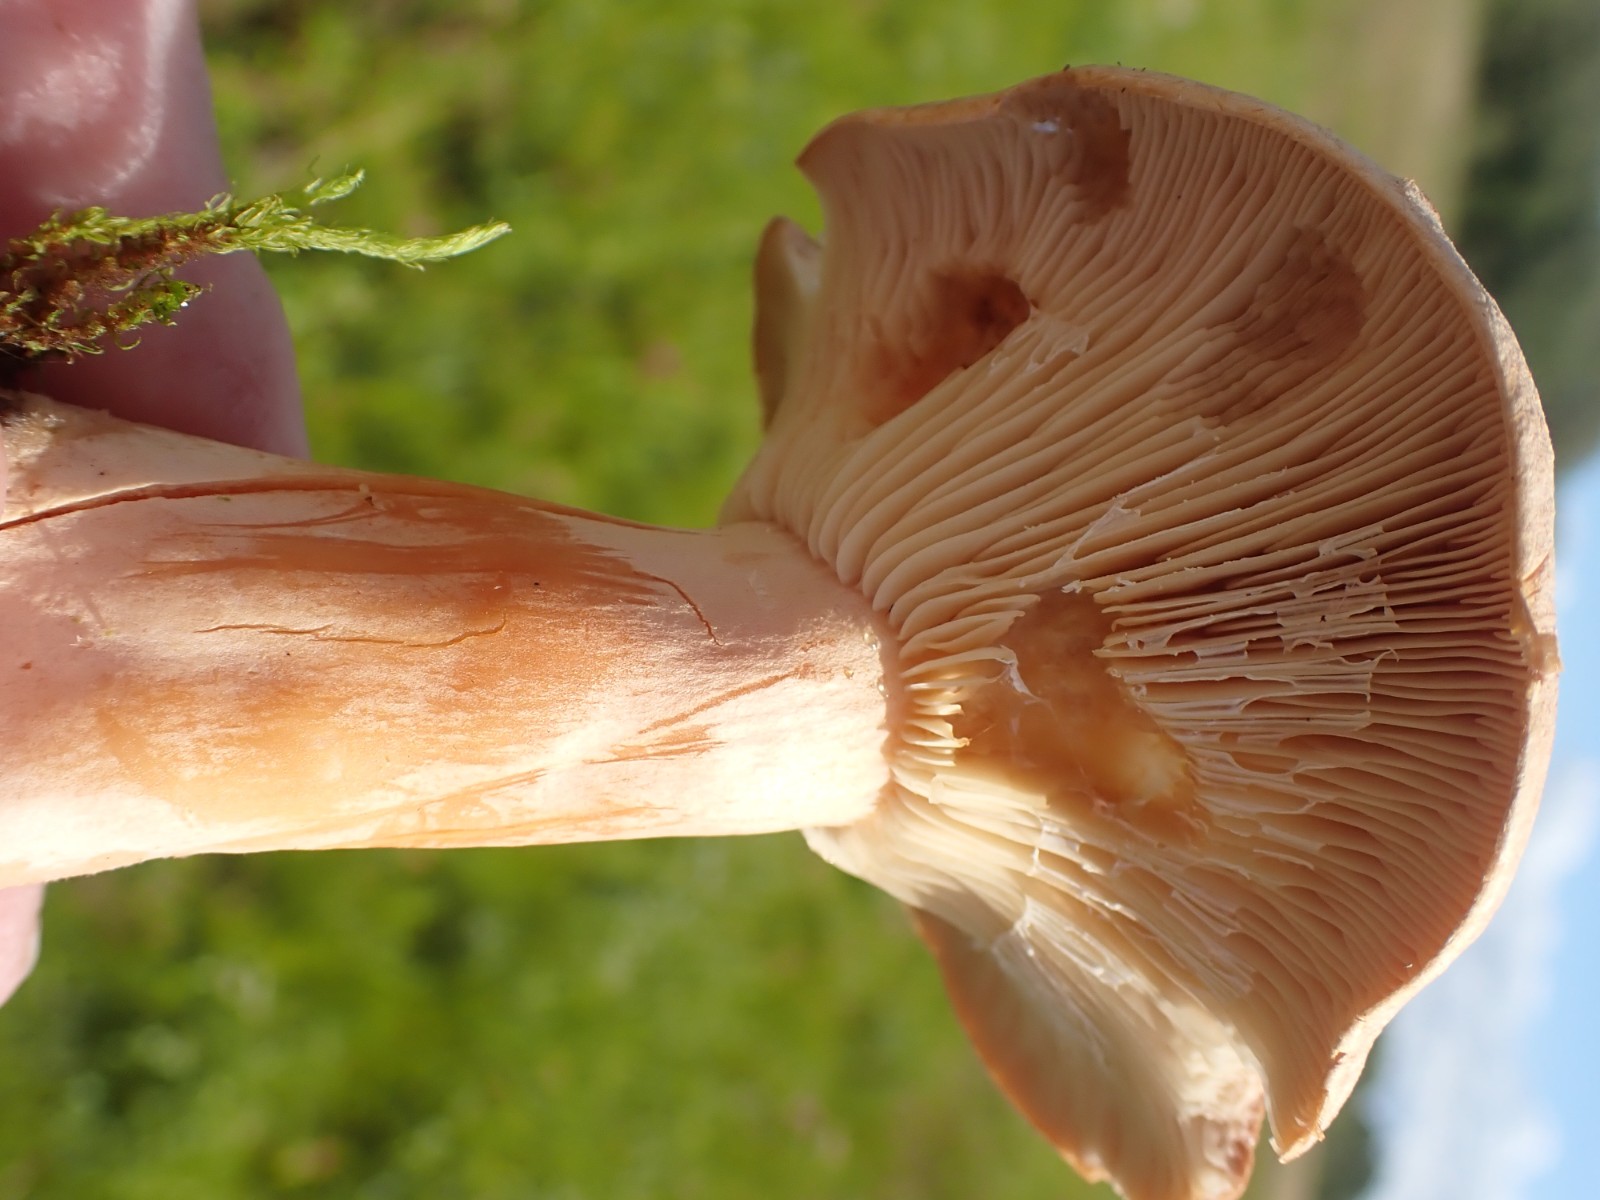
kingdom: Fungi
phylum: Basidiomycota
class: Agaricomycetes
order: Russulales
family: Russulaceae
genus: Lactarius
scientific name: Lactarius helvus
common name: mose-mælkehat
